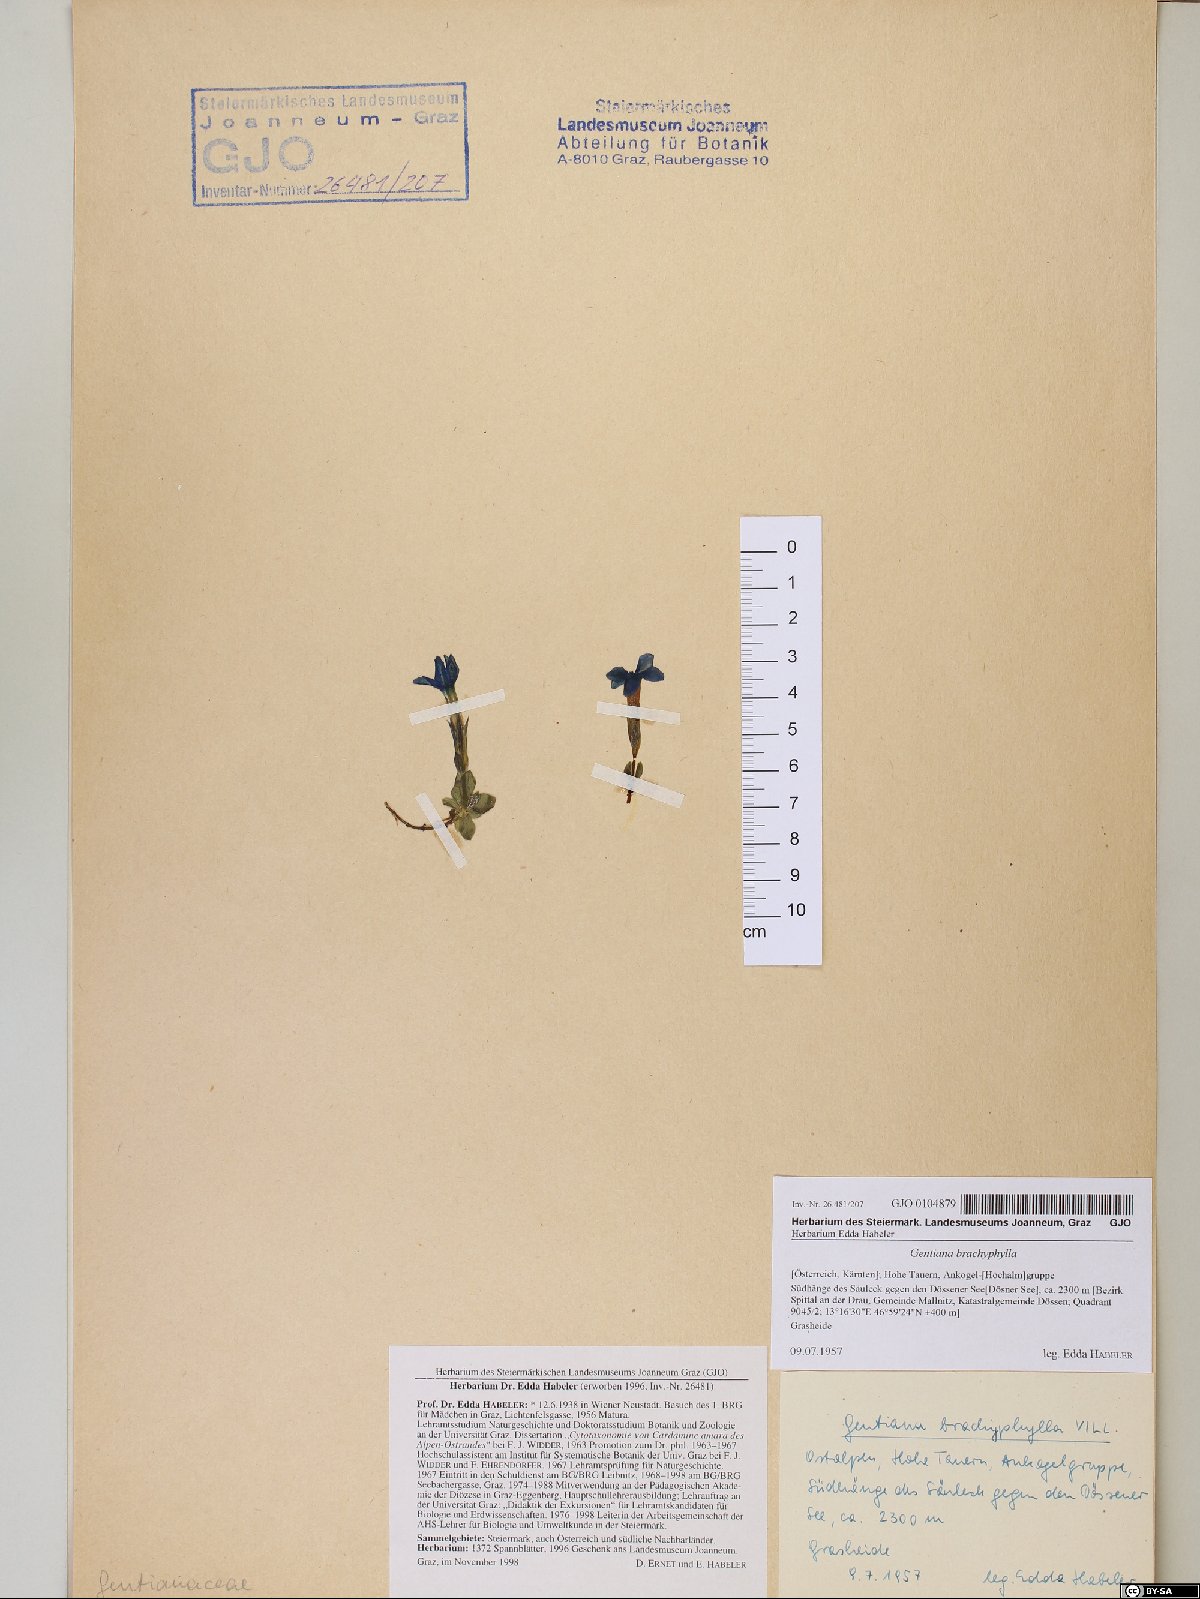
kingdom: Plantae
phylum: Tracheophyta
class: Magnoliopsida
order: Gentianales
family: Gentianaceae
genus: Gentiana
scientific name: Gentiana brachyphylla
